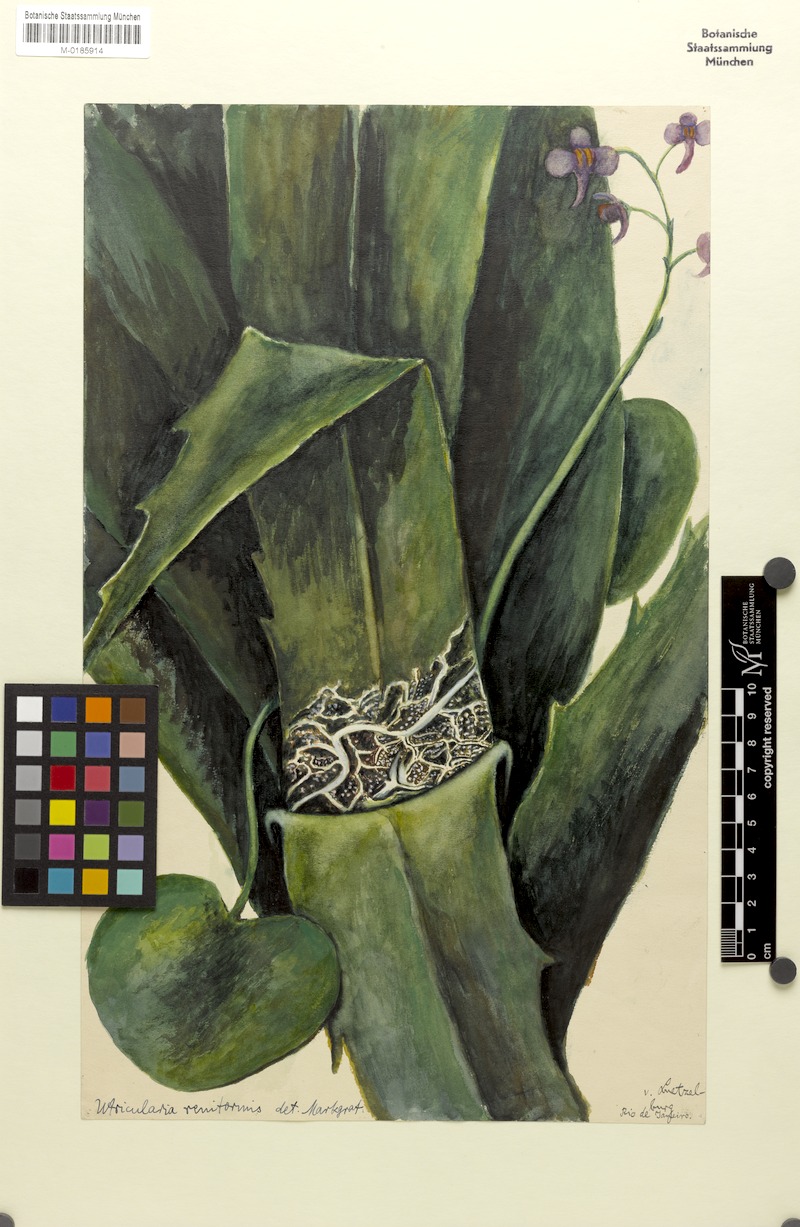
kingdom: Plantae
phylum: Tracheophyta
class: Magnoliopsida
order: Lamiales
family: Lentibulariaceae
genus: Utricularia
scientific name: Utricularia nelumbifolia
